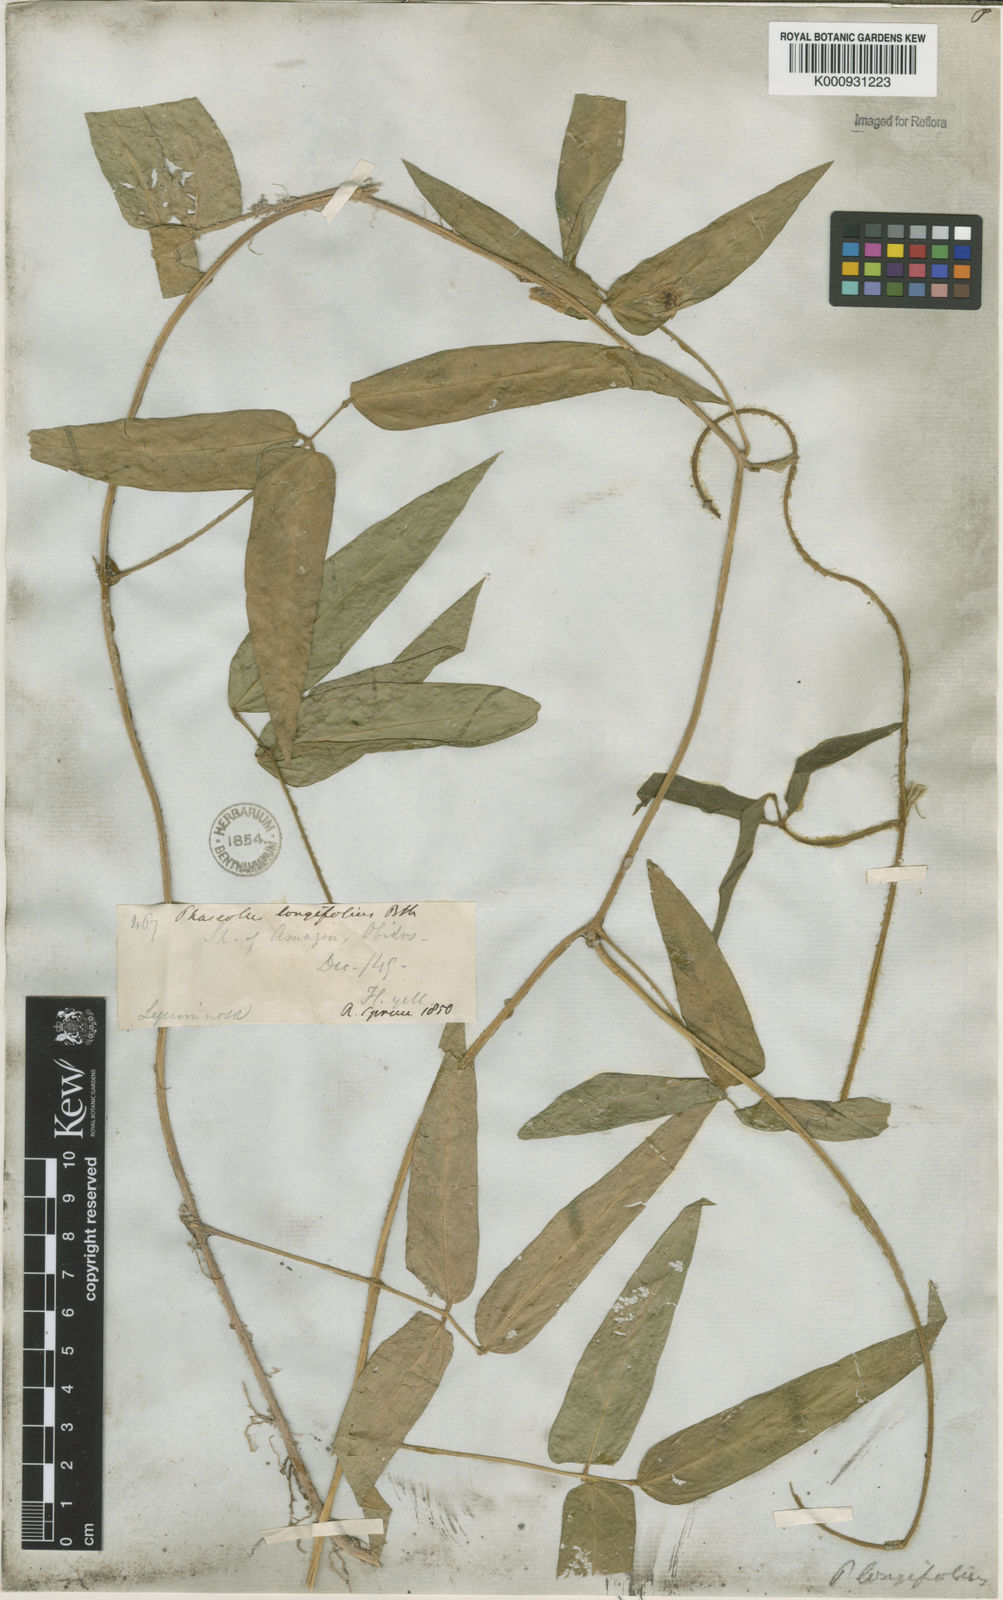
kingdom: Plantae
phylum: Tracheophyta
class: Magnoliopsida
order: Fabales
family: Fabaceae
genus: Vigna
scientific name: Vigna longifolia
